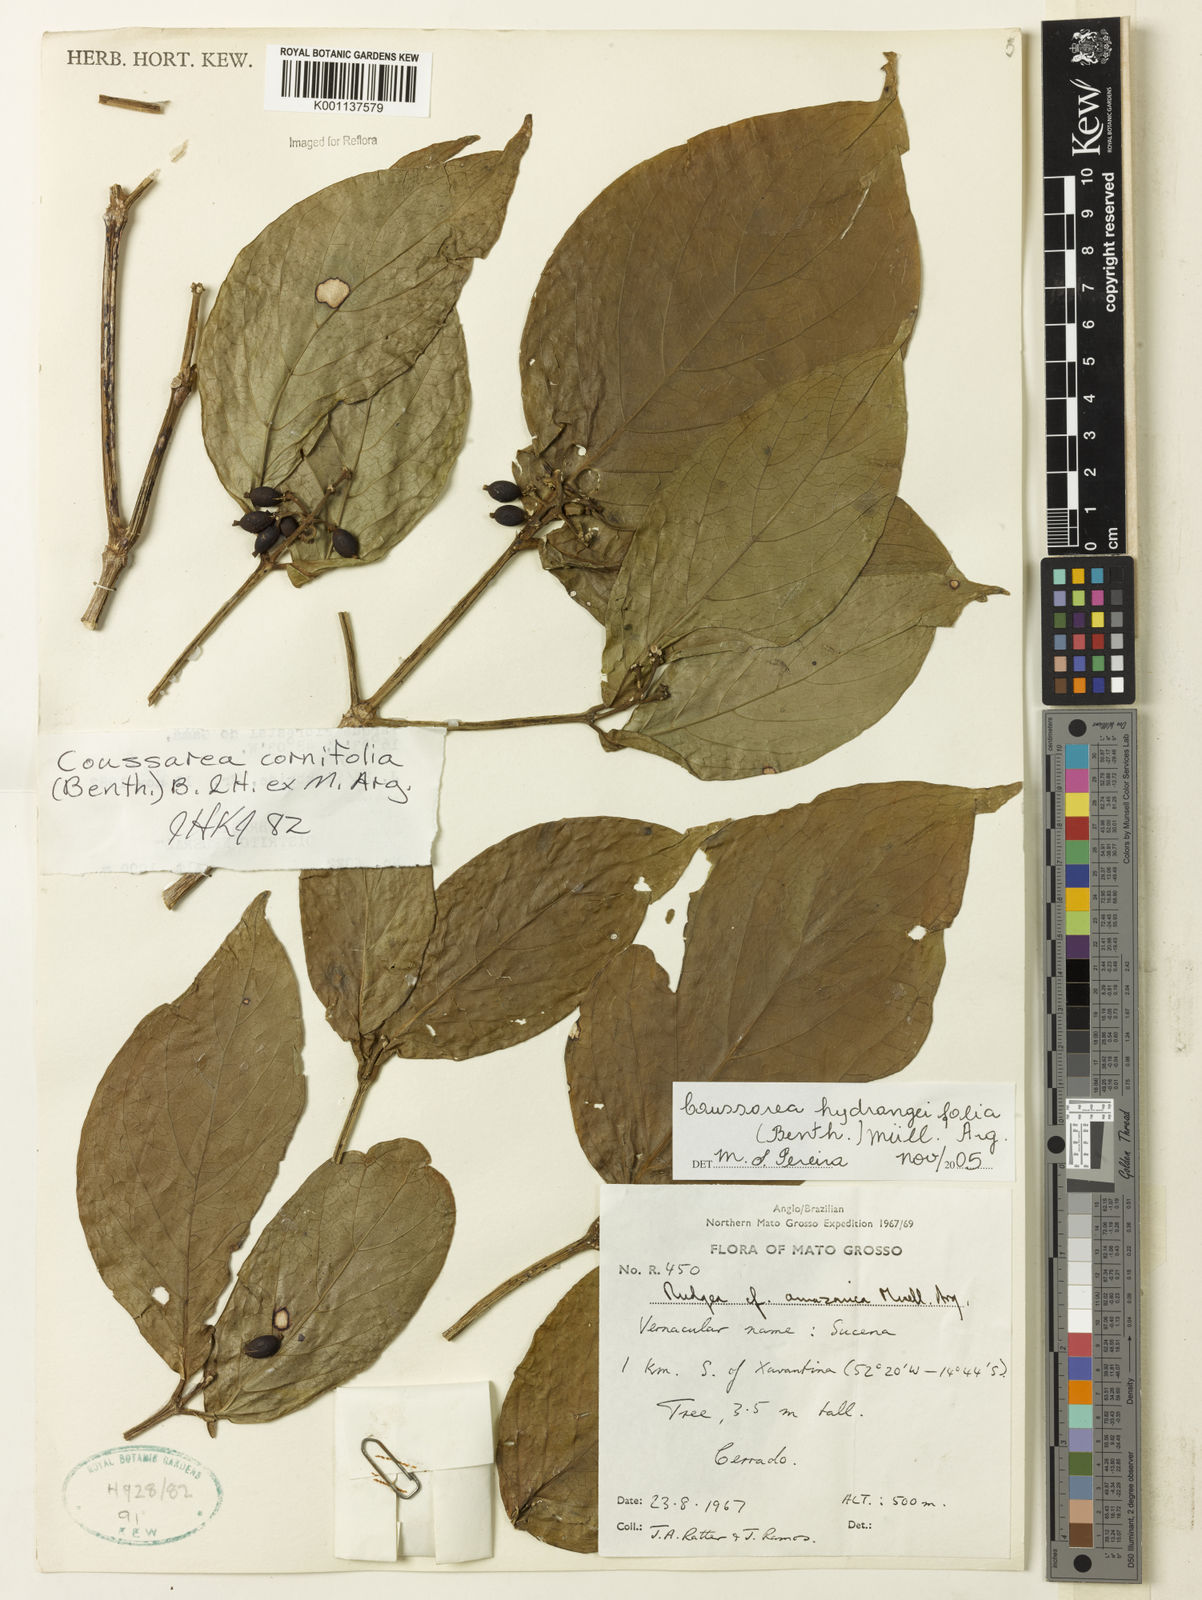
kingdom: Plantae
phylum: Tracheophyta
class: Magnoliopsida
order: Gentianales
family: Rubiaceae
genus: Coussarea
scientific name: Coussarea
